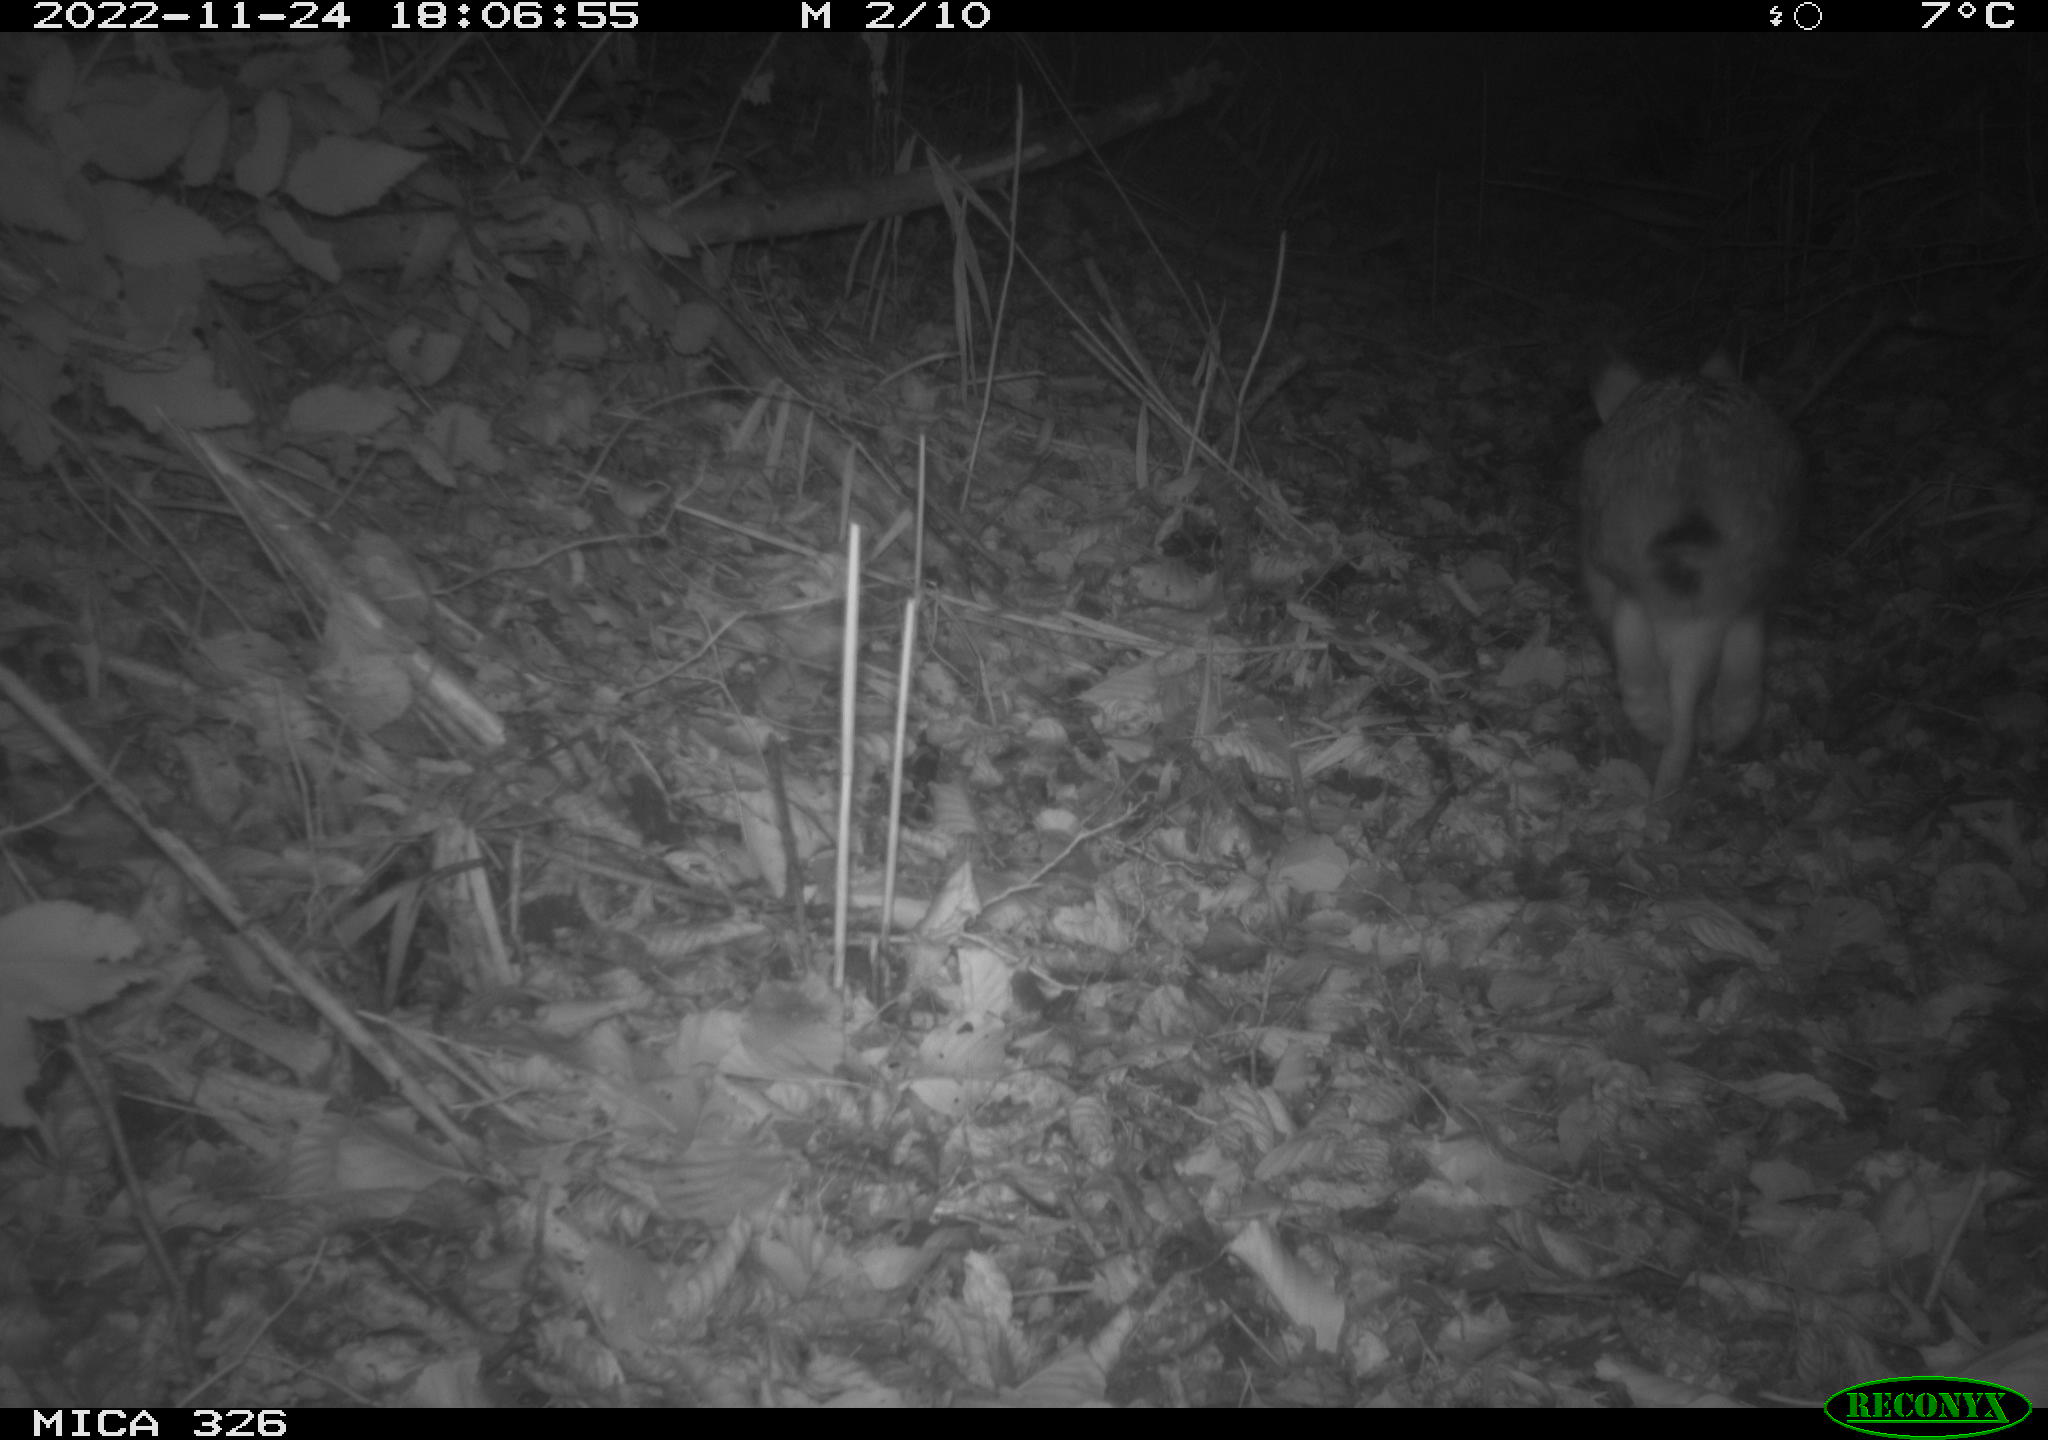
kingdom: Animalia
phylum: Chordata
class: Mammalia
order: Lagomorpha
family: Leporidae
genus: Lepus
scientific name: Lepus europaeus
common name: European hare
